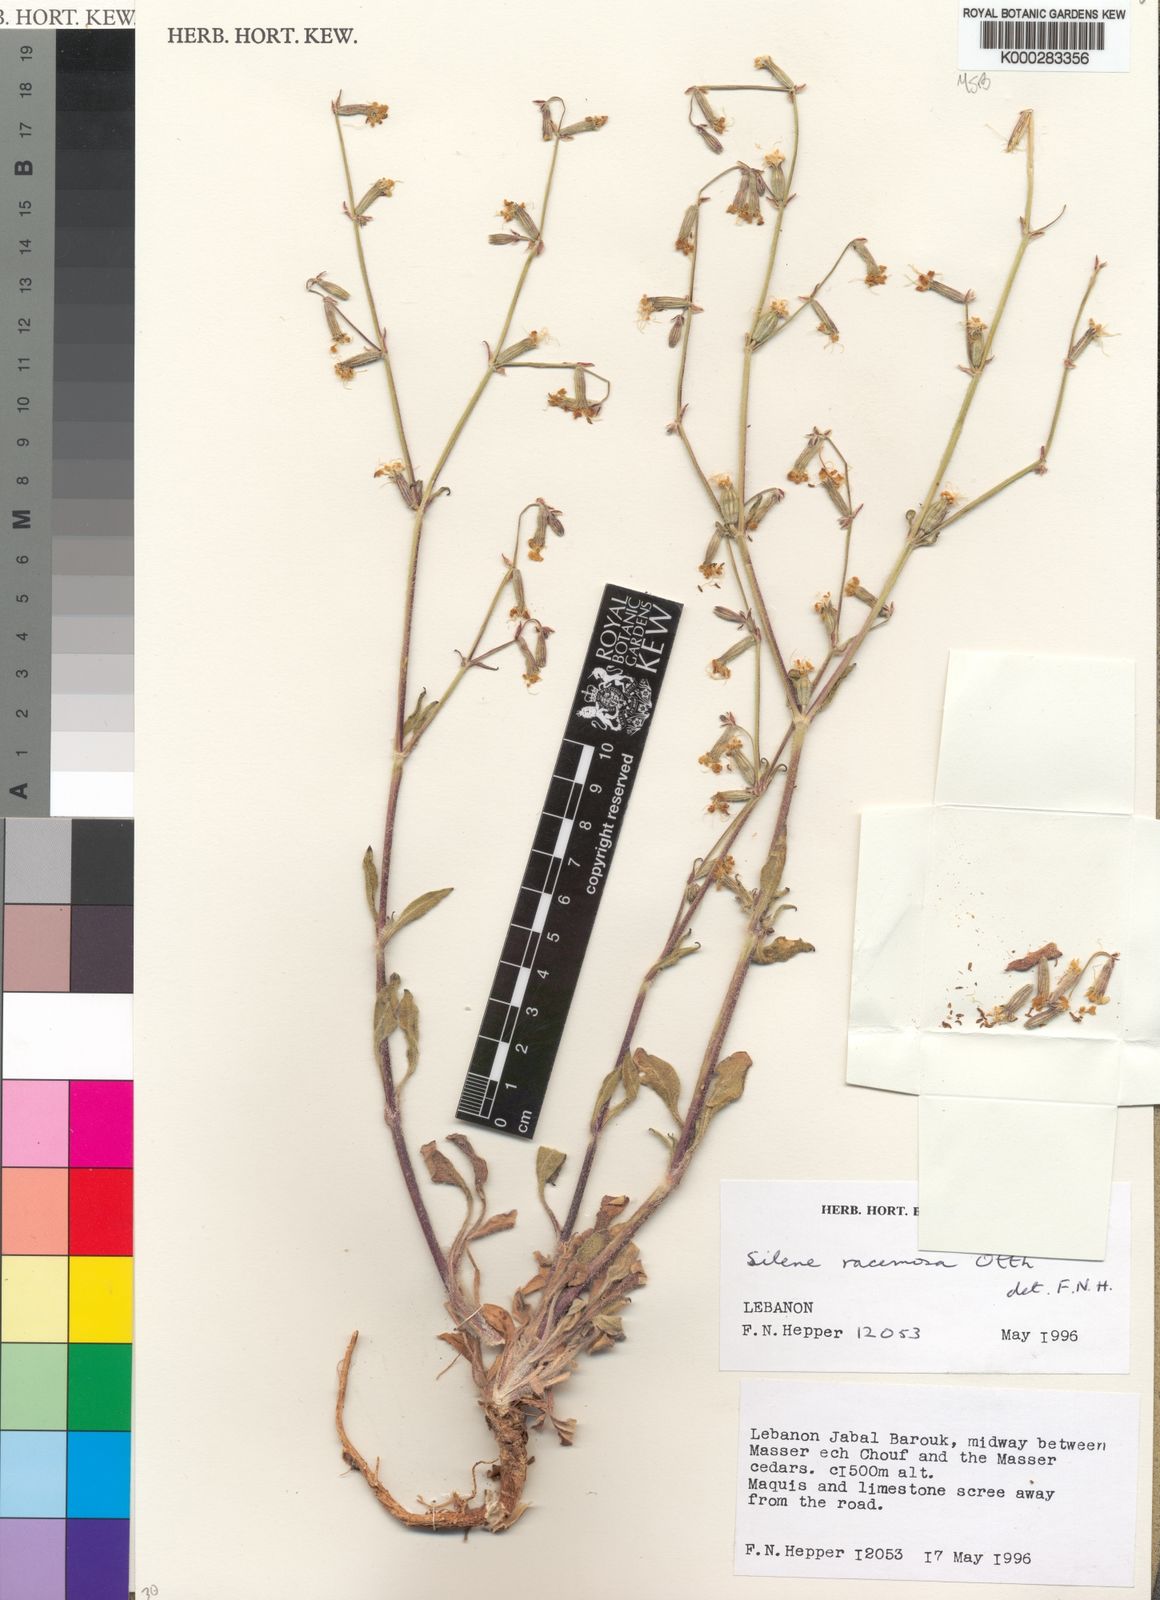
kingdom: Plantae
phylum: Tracheophyta
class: Magnoliopsida
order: Caryophyllales
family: Caryophyllaceae
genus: Silene
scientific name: Silene dichotoma
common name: Forked catchfly
